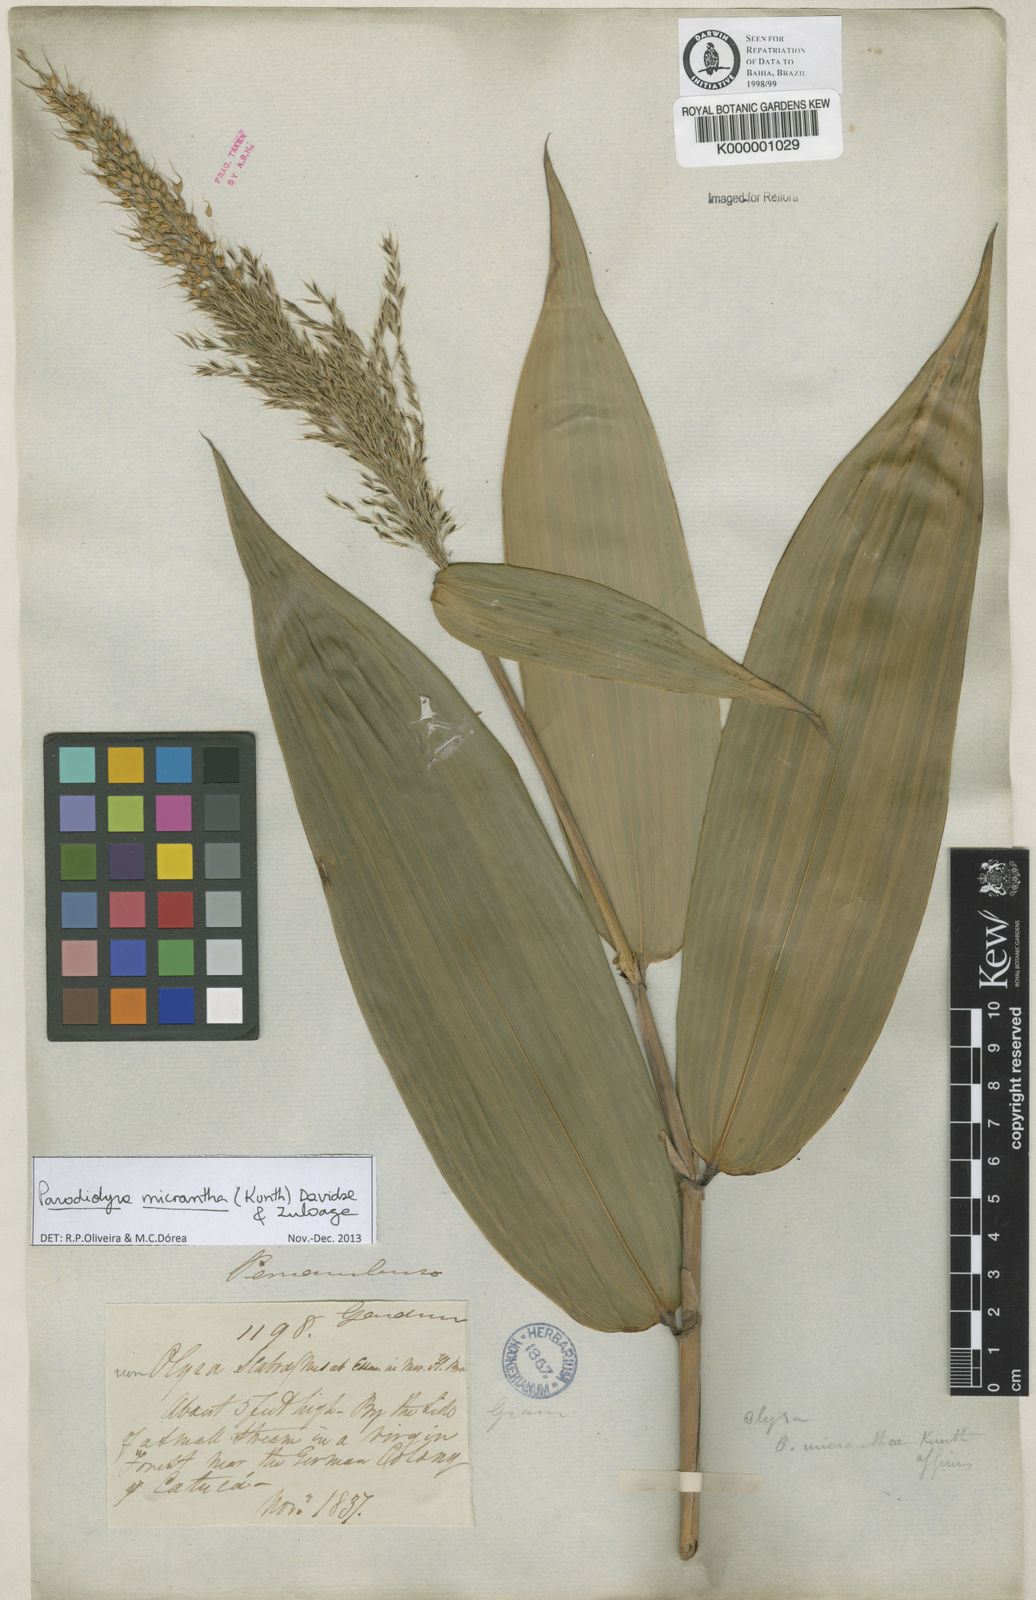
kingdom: Plantae
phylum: Tracheophyta
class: Liliopsida
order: Poales
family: Poaceae
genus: Taquara
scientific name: Taquara micrantha
